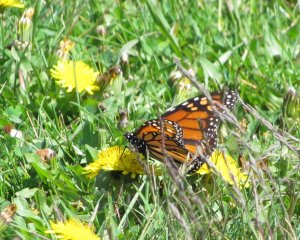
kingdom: Animalia
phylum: Arthropoda
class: Insecta
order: Lepidoptera
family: Nymphalidae
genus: Danaus
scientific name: Danaus plexippus
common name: Monarch
